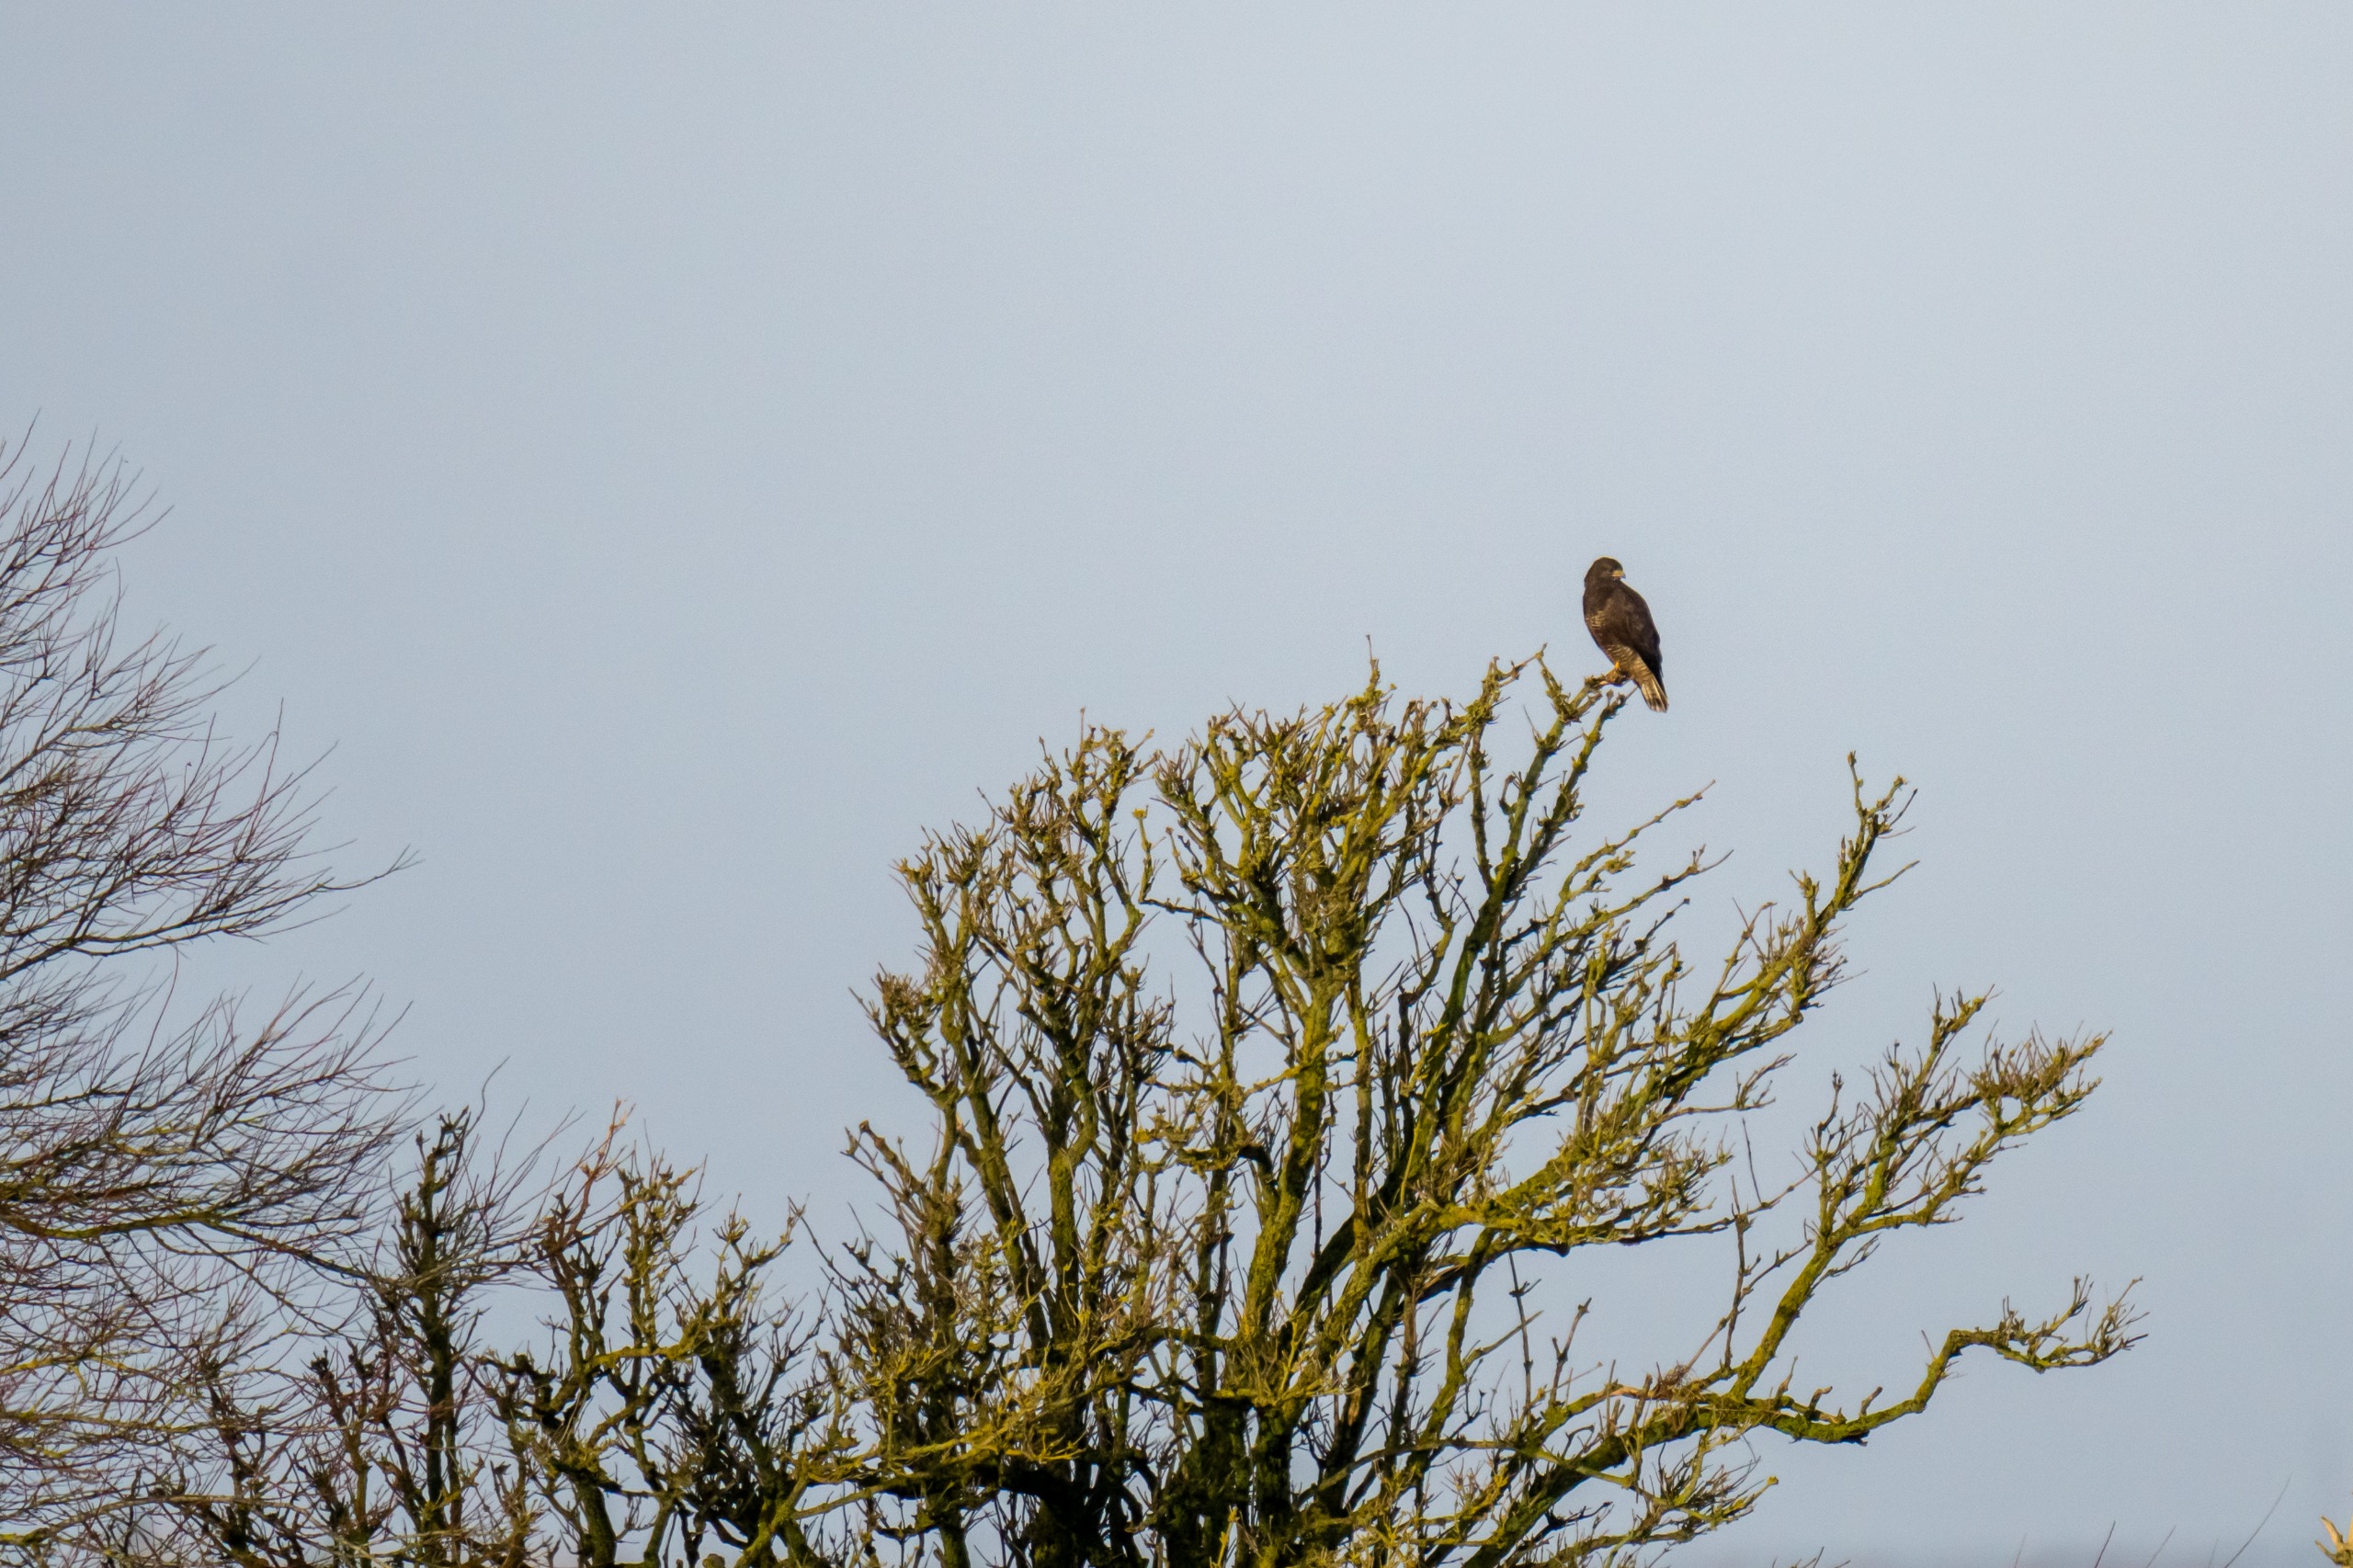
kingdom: Animalia
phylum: Chordata
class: Aves
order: Accipitriformes
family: Accipitridae
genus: Buteo
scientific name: Buteo buteo
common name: Musvåge
